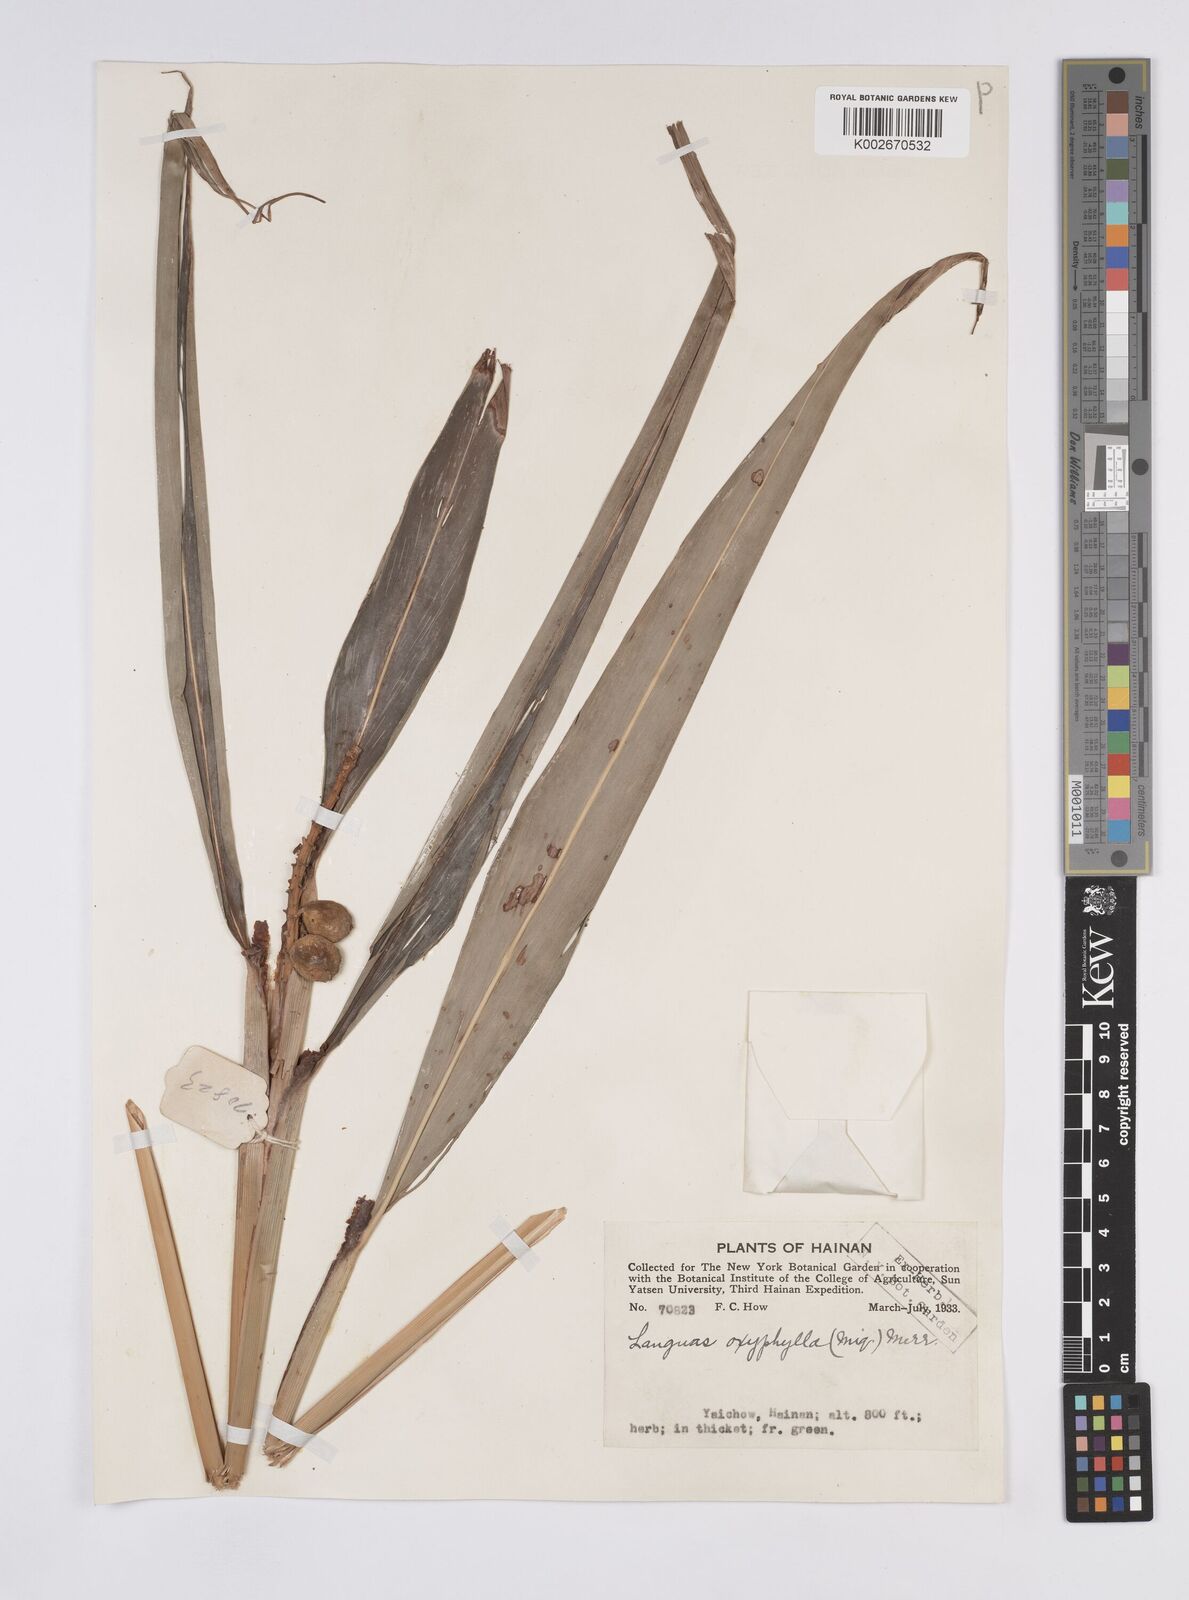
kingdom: Plantae
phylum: Tracheophyta
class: Liliopsida
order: Zingiberales
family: Zingiberaceae
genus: Alpinia
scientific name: Alpinia oxyphylla
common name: Sharp-leaf galangal
